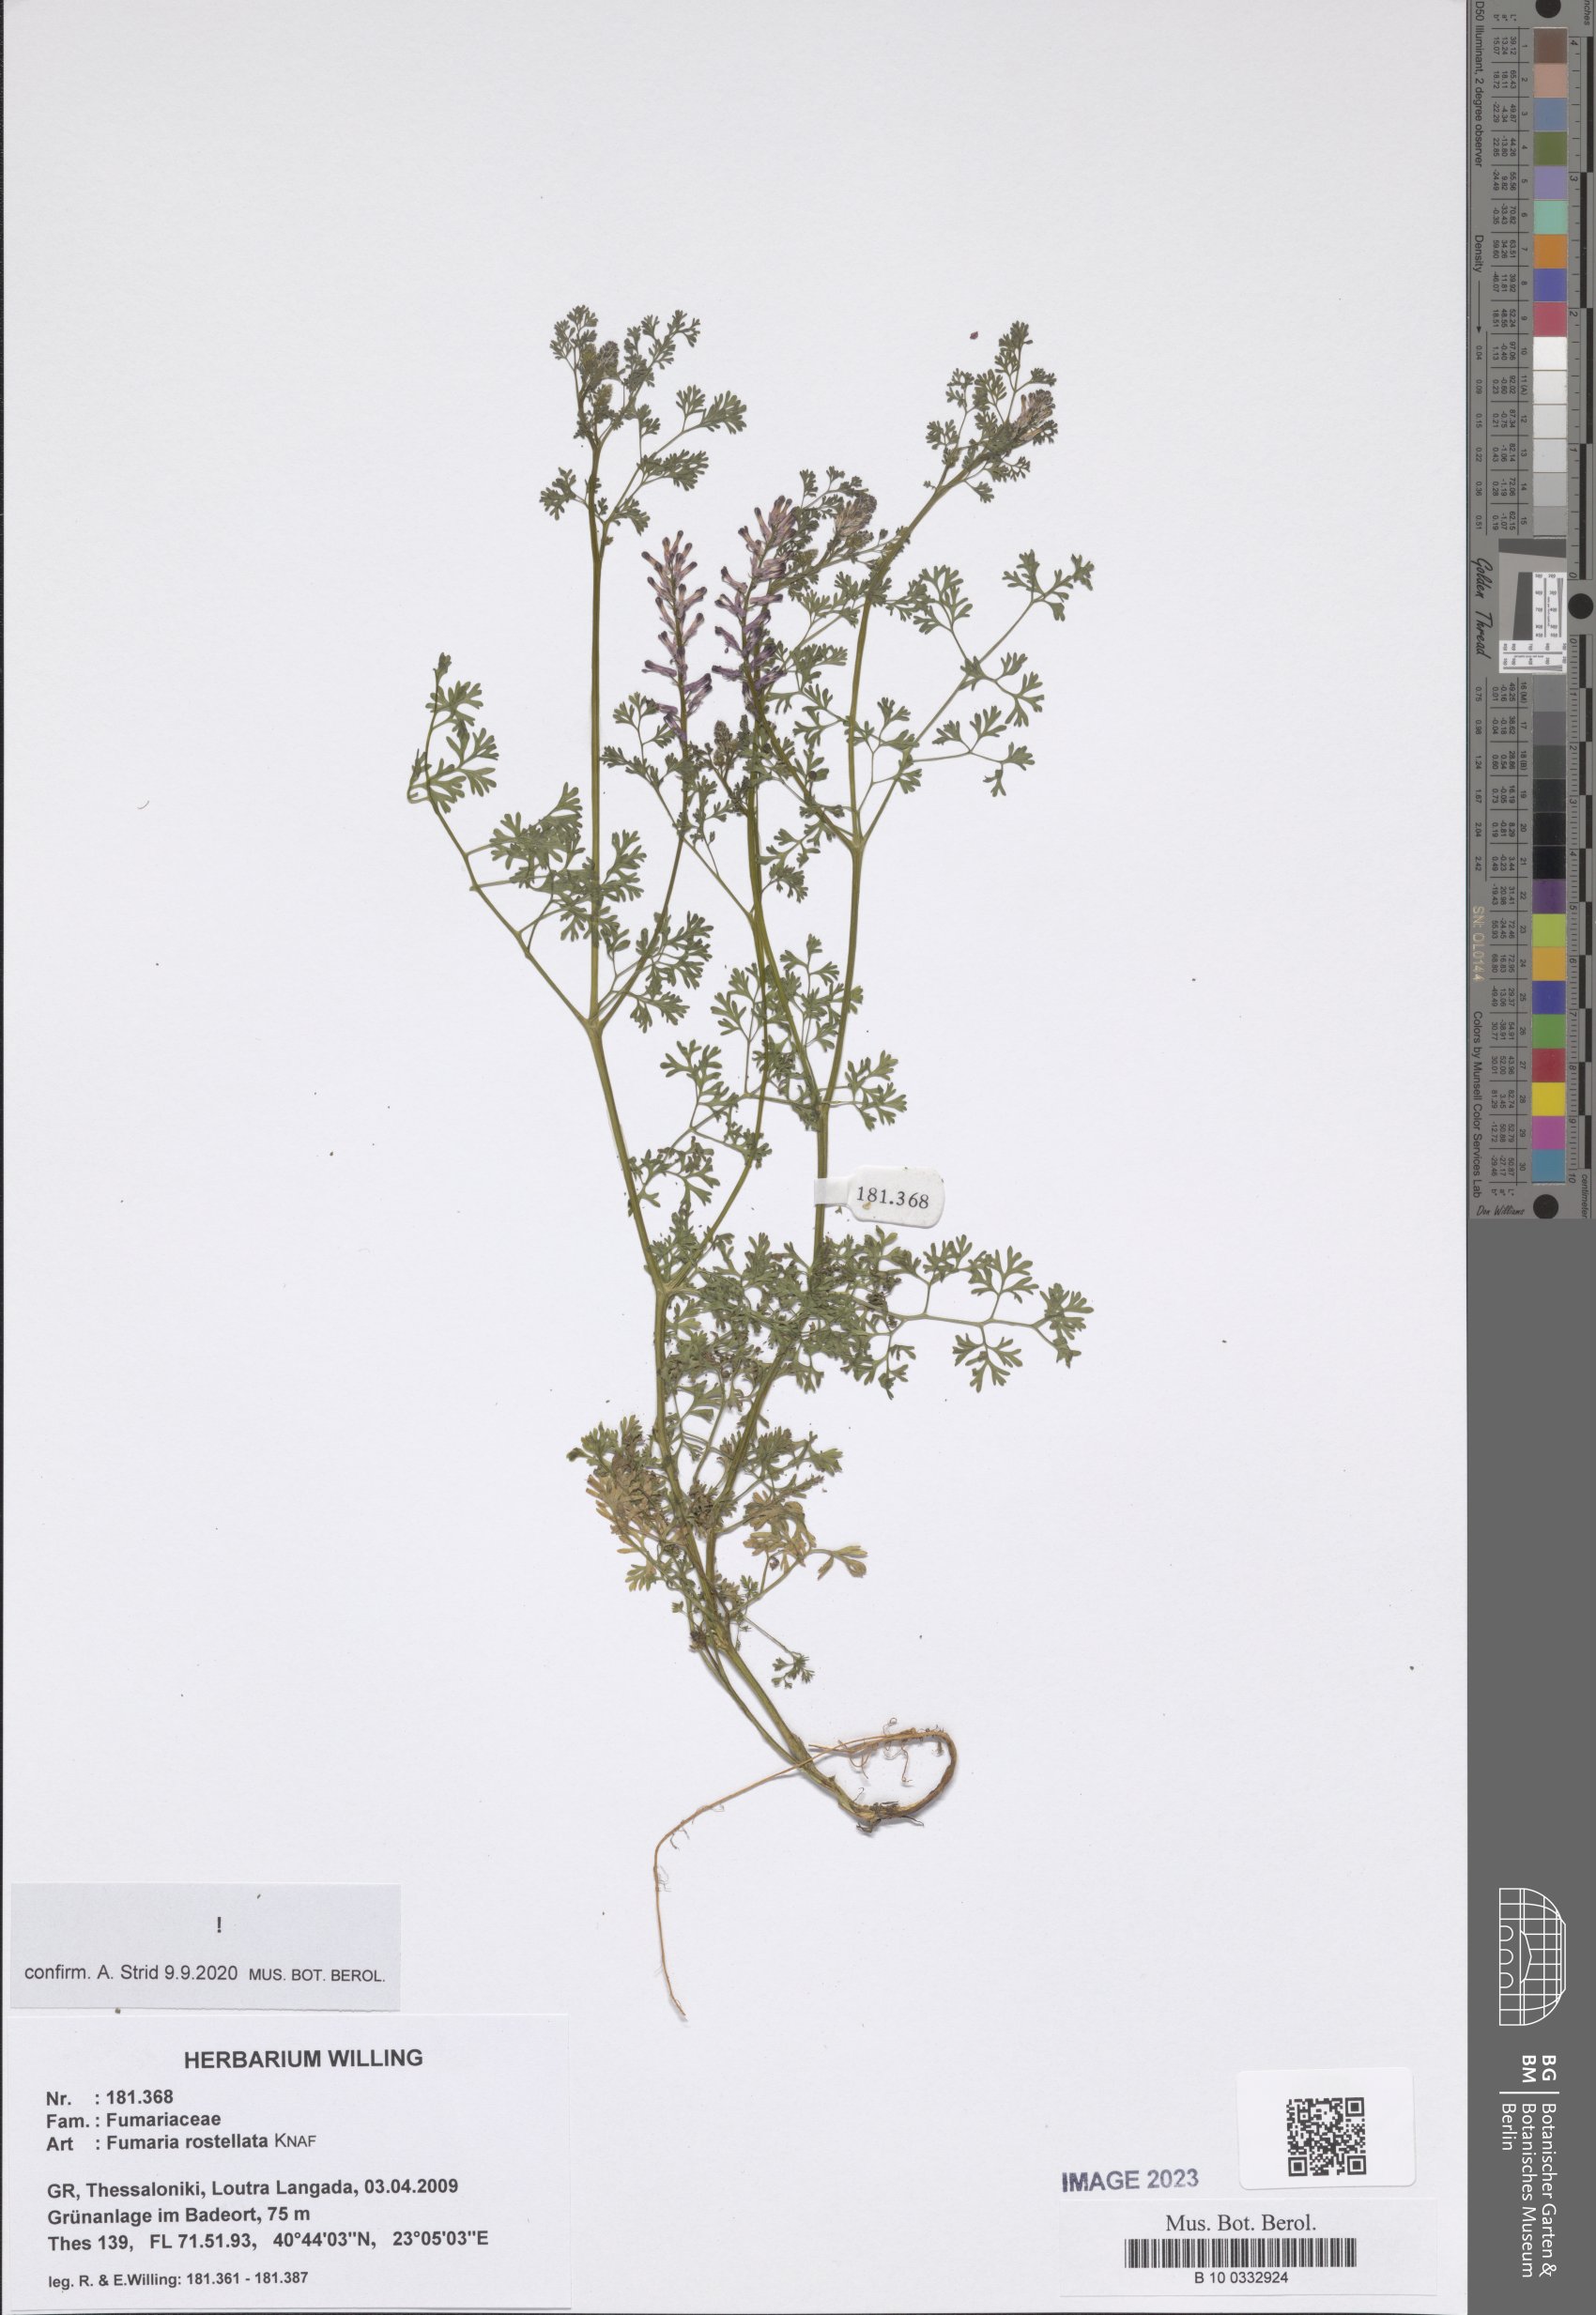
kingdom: Plantae
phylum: Tracheophyta
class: Magnoliopsida
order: Ranunculales
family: Papaveraceae
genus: Fumaria
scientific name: Fumaria rostellata
